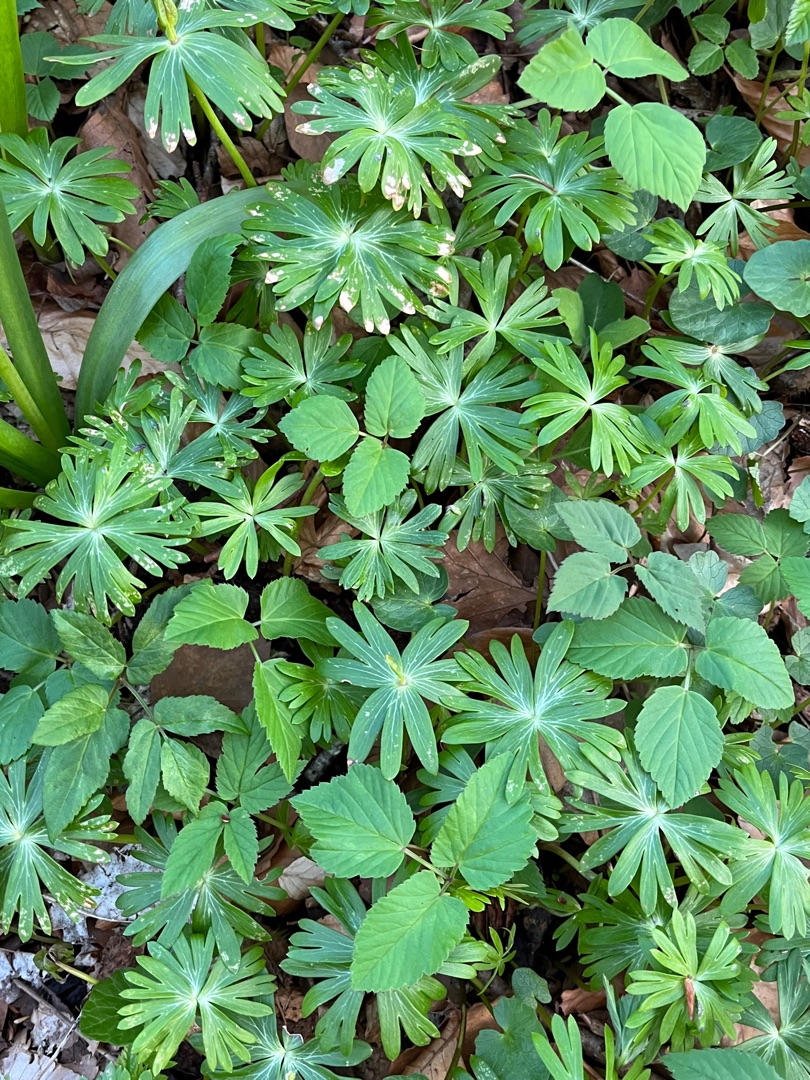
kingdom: Plantae
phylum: Tracheophyta
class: Magnoliopsida
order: Ranunculales
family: Ranunculaceae
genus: Eranthis
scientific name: Eranthis hyemalis
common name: Erantis
